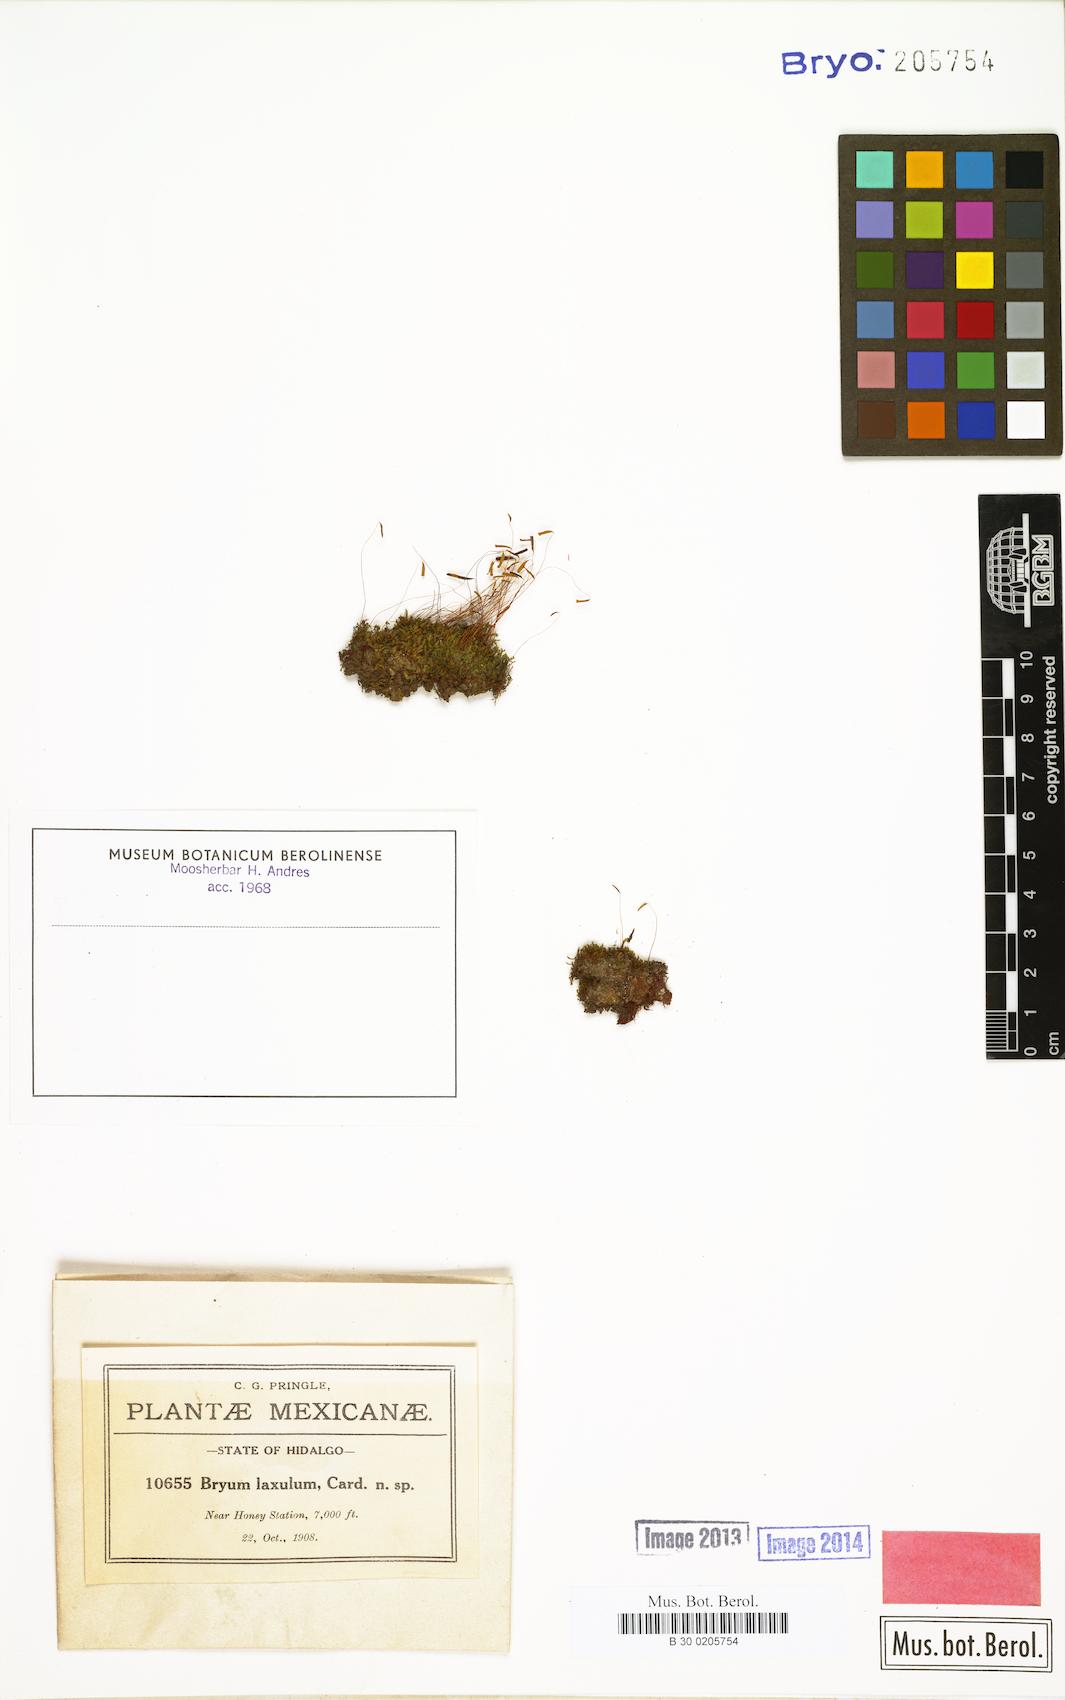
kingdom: Plantae
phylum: Bryophyta
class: Bryopsida
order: Bryales
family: Bryaceae
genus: Rosulabryum
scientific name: Rosulabryum capillare
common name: Capillary thread-moss
